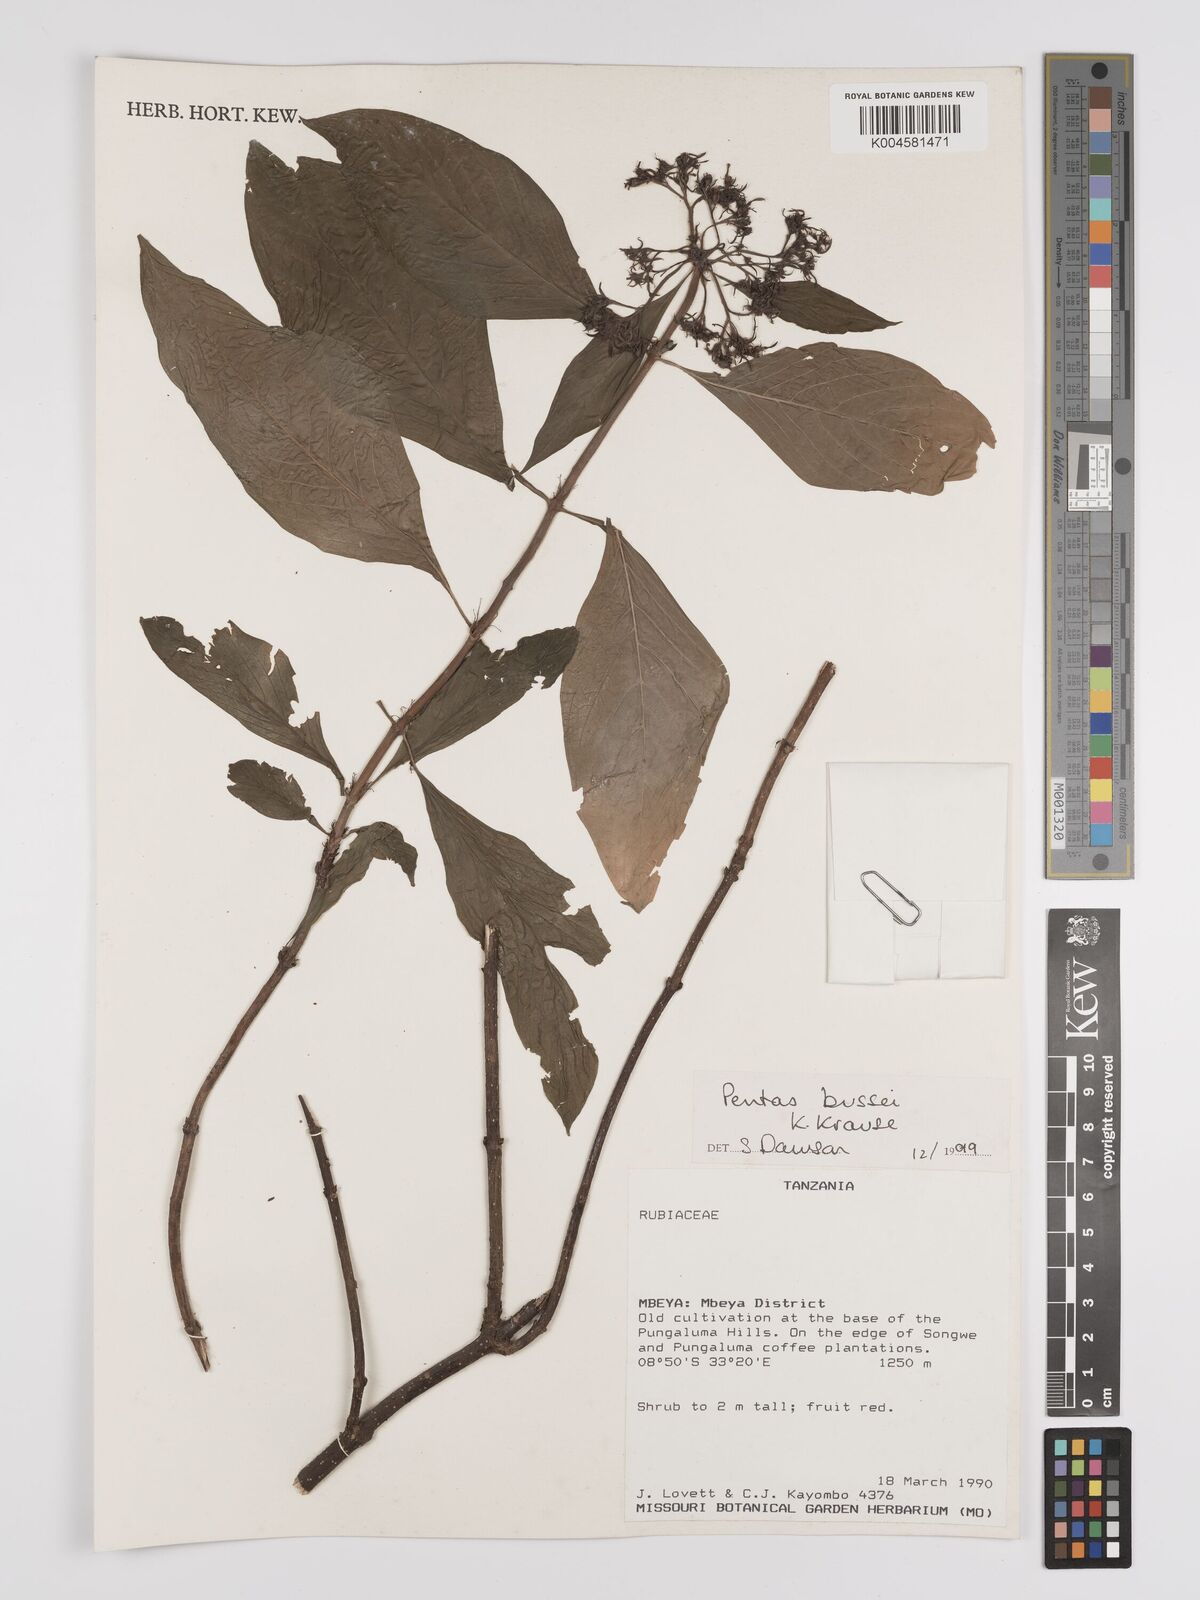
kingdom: Plantae
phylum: Tracheophyta
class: Magnoliopsida
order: Gentianales
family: Rubiaceae
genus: Rhodopentas
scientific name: Rhodopentas bussei
